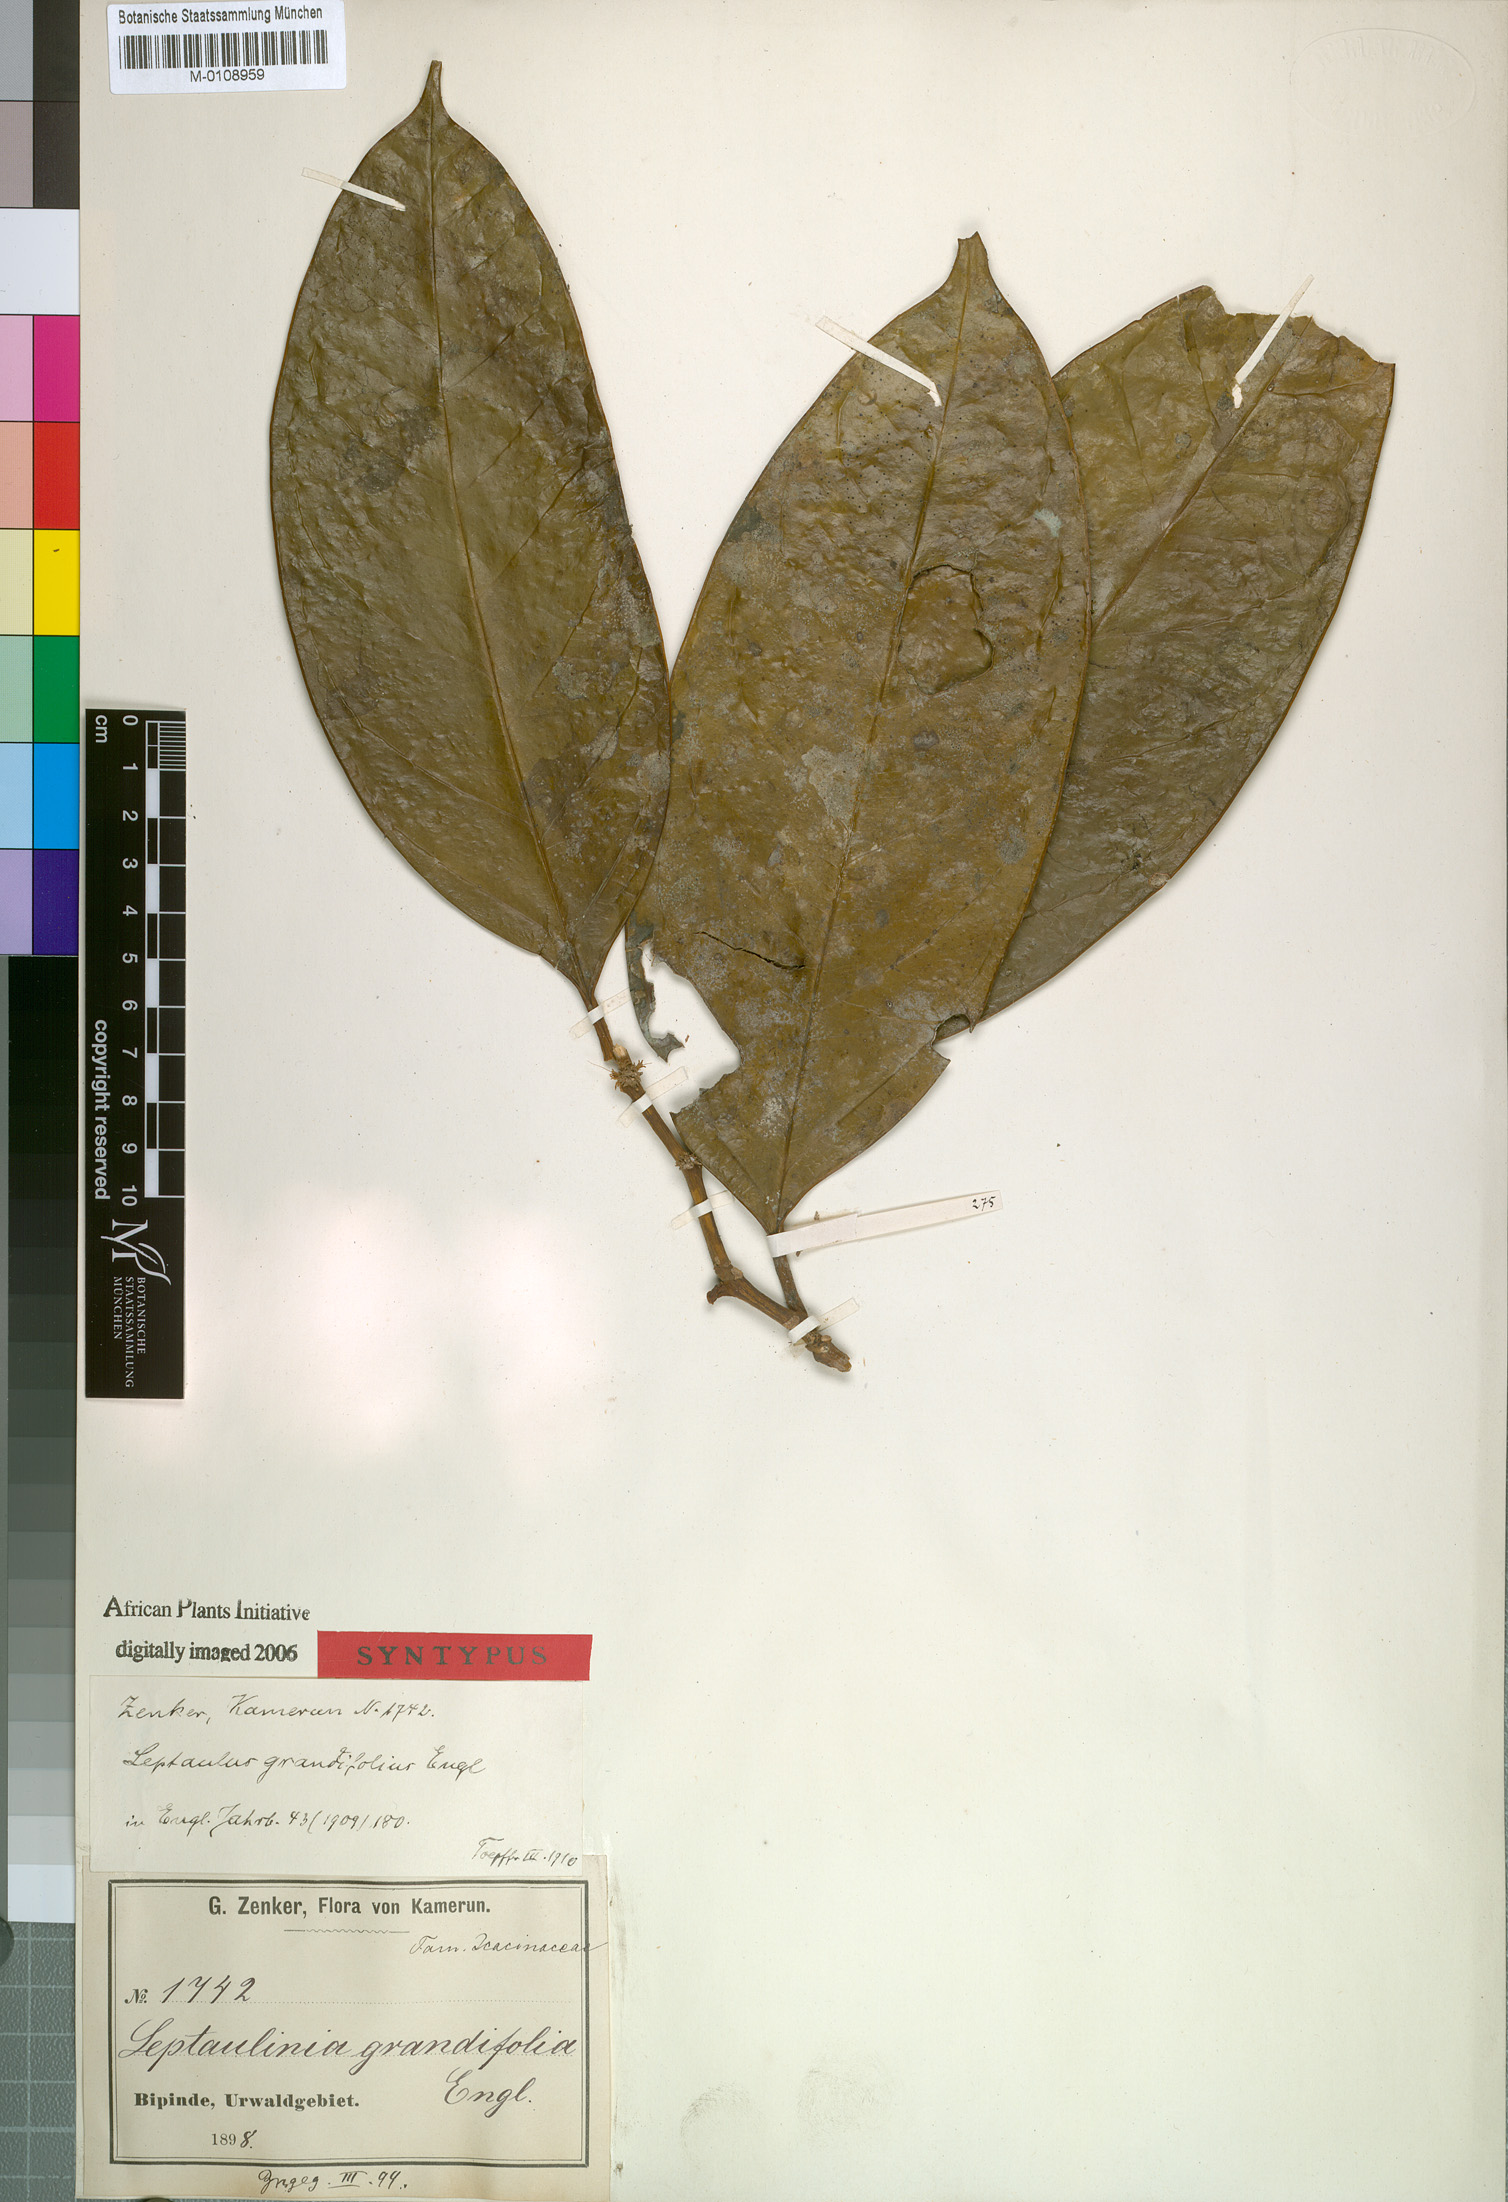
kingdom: Plantae
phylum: Tracheophyta
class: Magnoliopsida
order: Cardiopteridales
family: Cardiopteridaceae
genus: Leptaulus
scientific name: Leptaulus grandifolius
